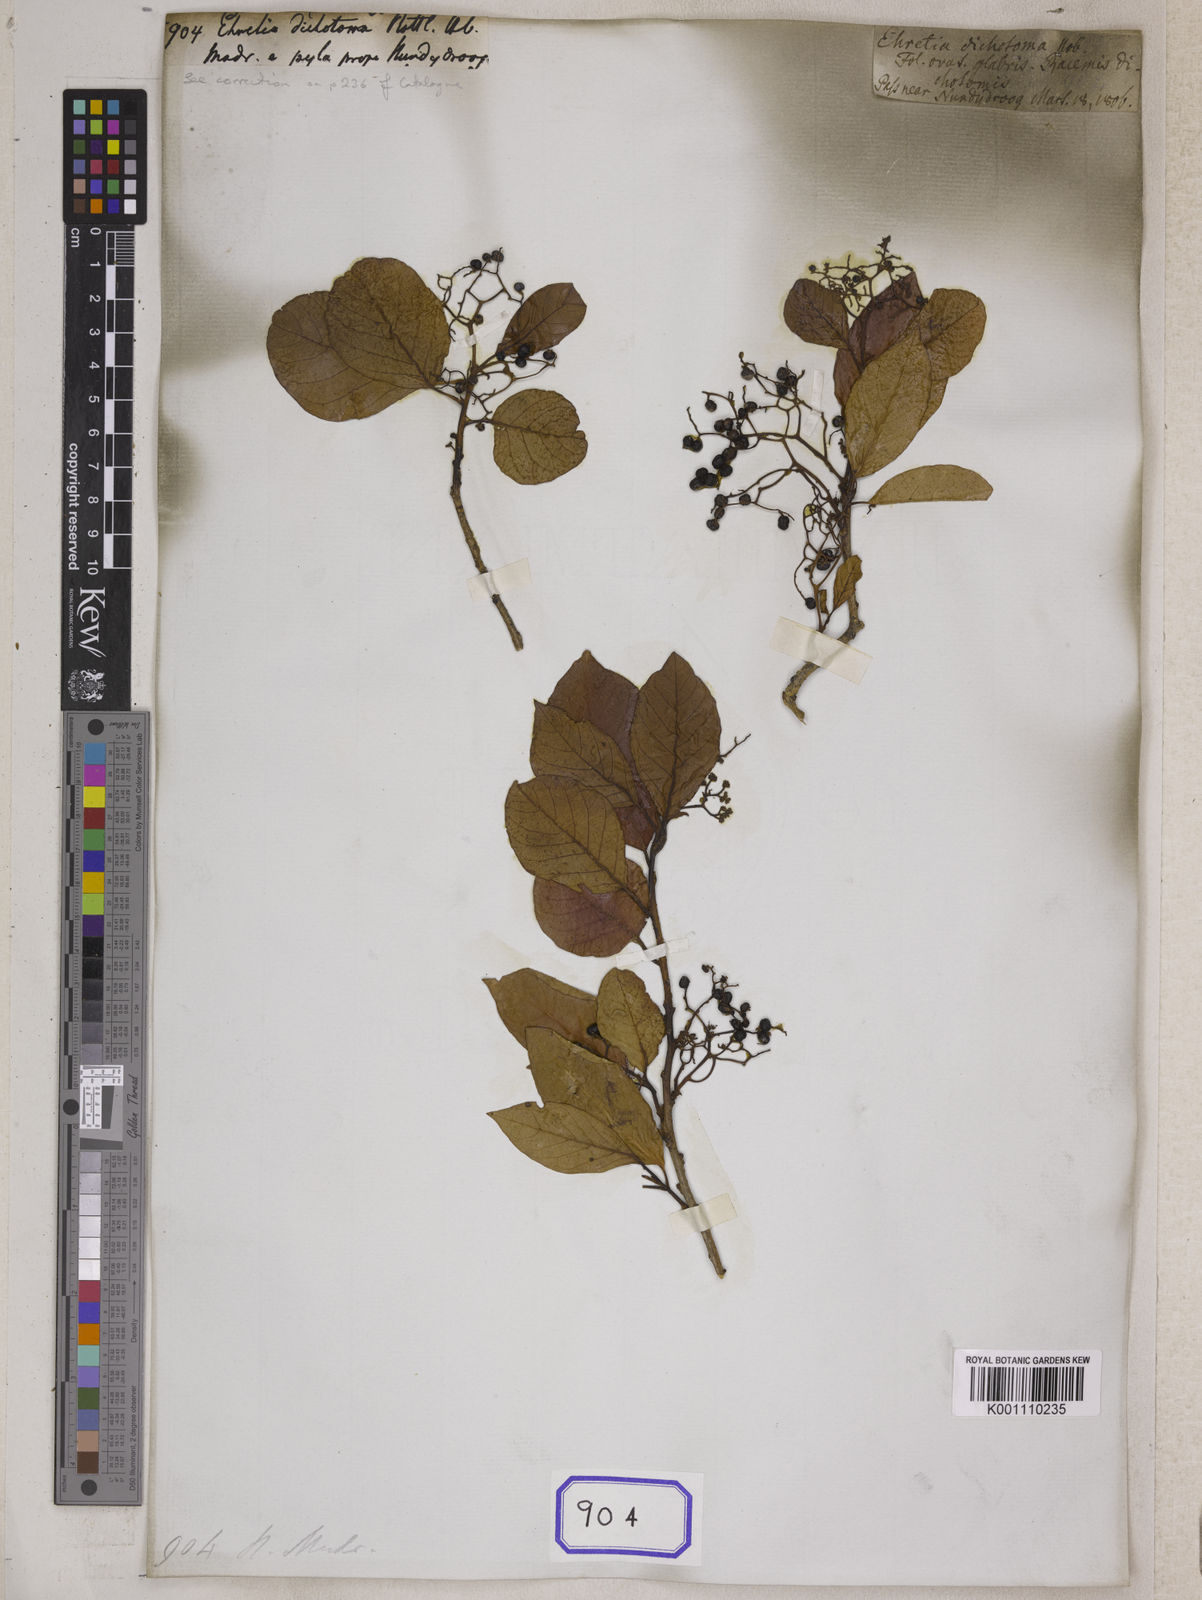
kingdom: Plantae
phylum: Tracheophyta
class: Magnoliopsida
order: Boraginales
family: Ehretiaceae
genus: Ehretia
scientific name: Ehretia
